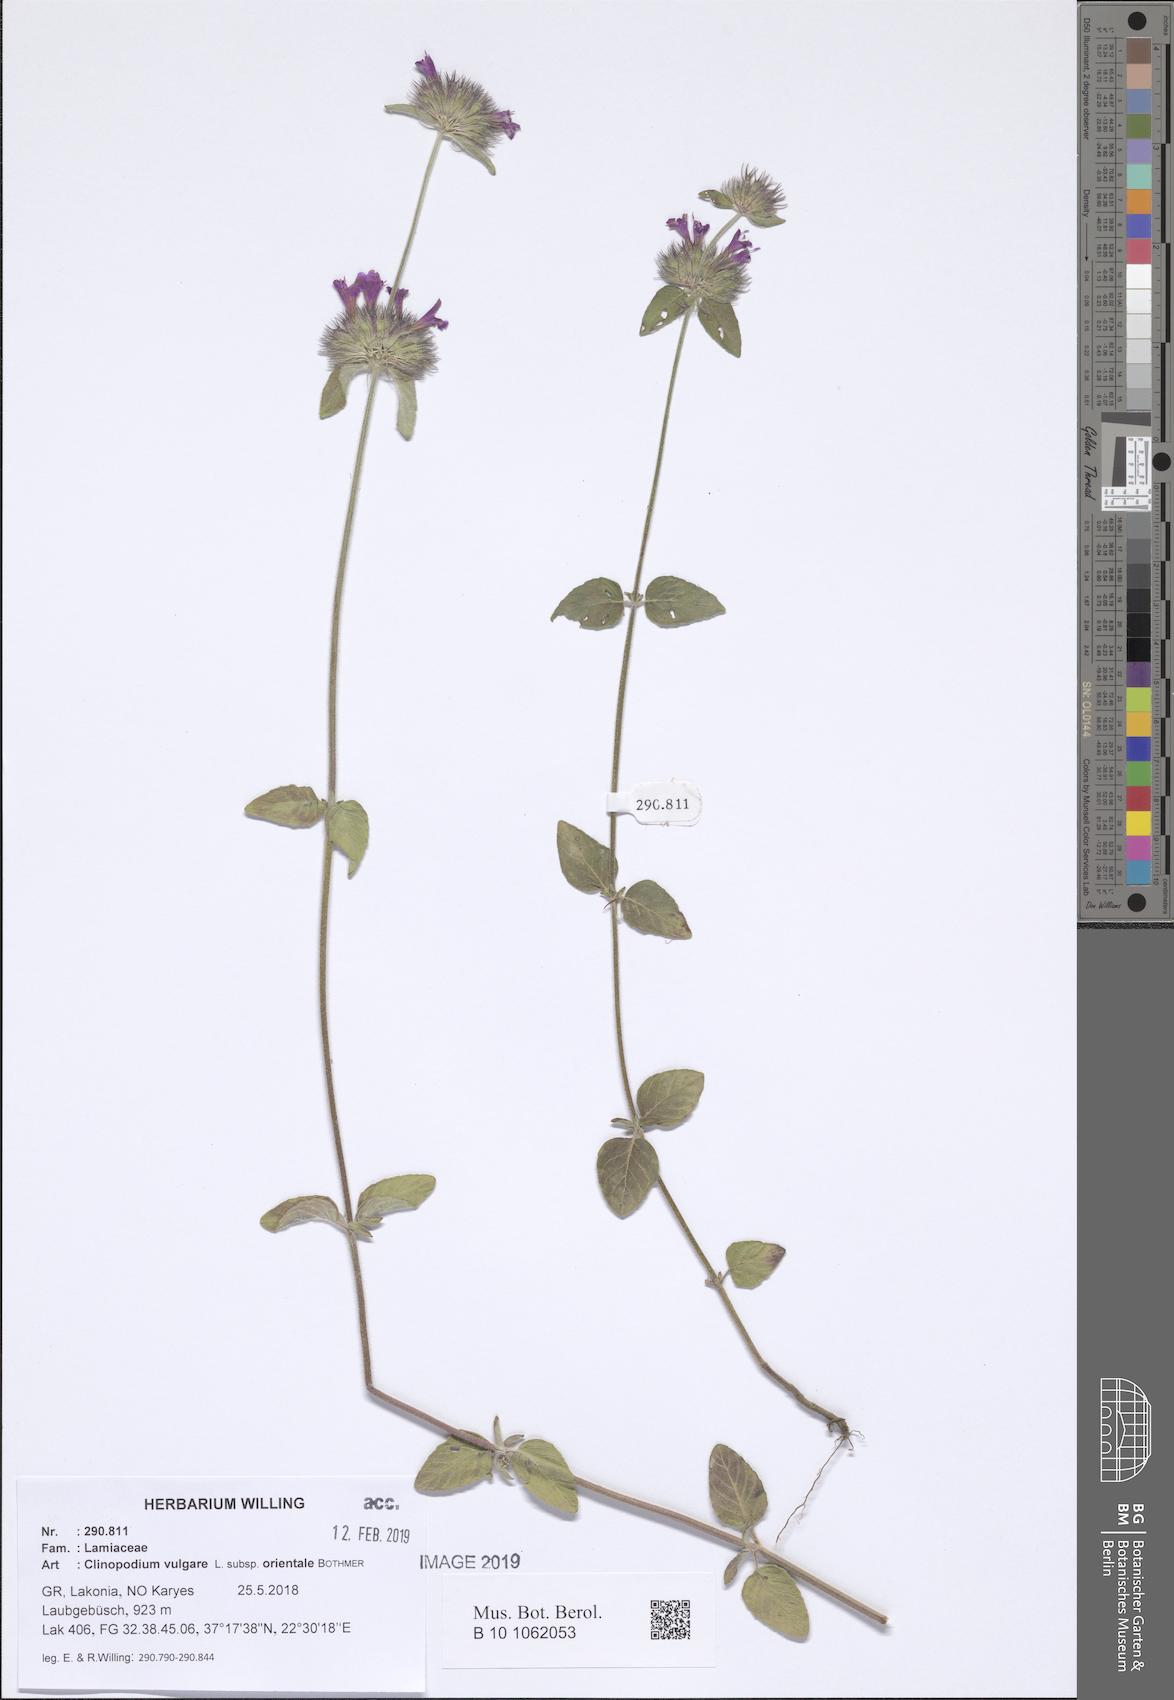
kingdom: Plantae
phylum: Tracheophyta
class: Magnoliopsida
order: Lamiales
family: Lamiaceae
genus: Clinopodium
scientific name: Clinopodium vulgare
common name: Wild basil
